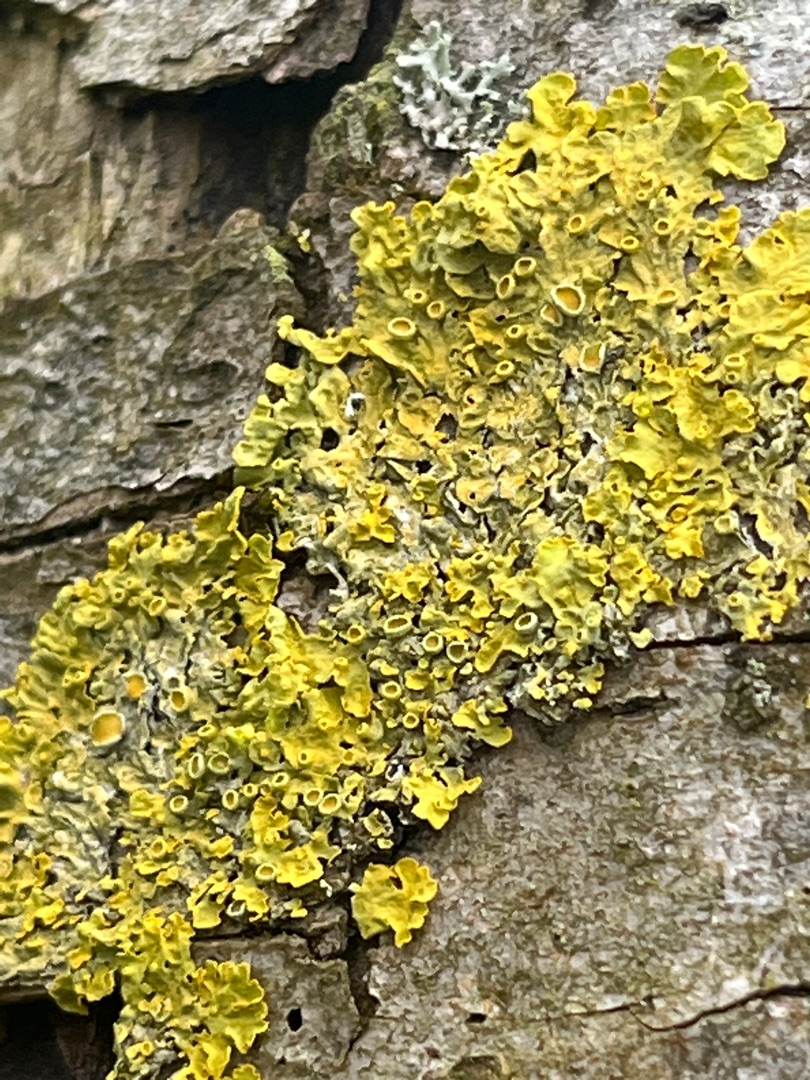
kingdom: Fungi
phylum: Ascomycota
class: Lecanoromycetes
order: Teloschistales
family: Teloschistaceae
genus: Xanthoria
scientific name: Xanthoria parietina
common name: Almindelig væggelav
